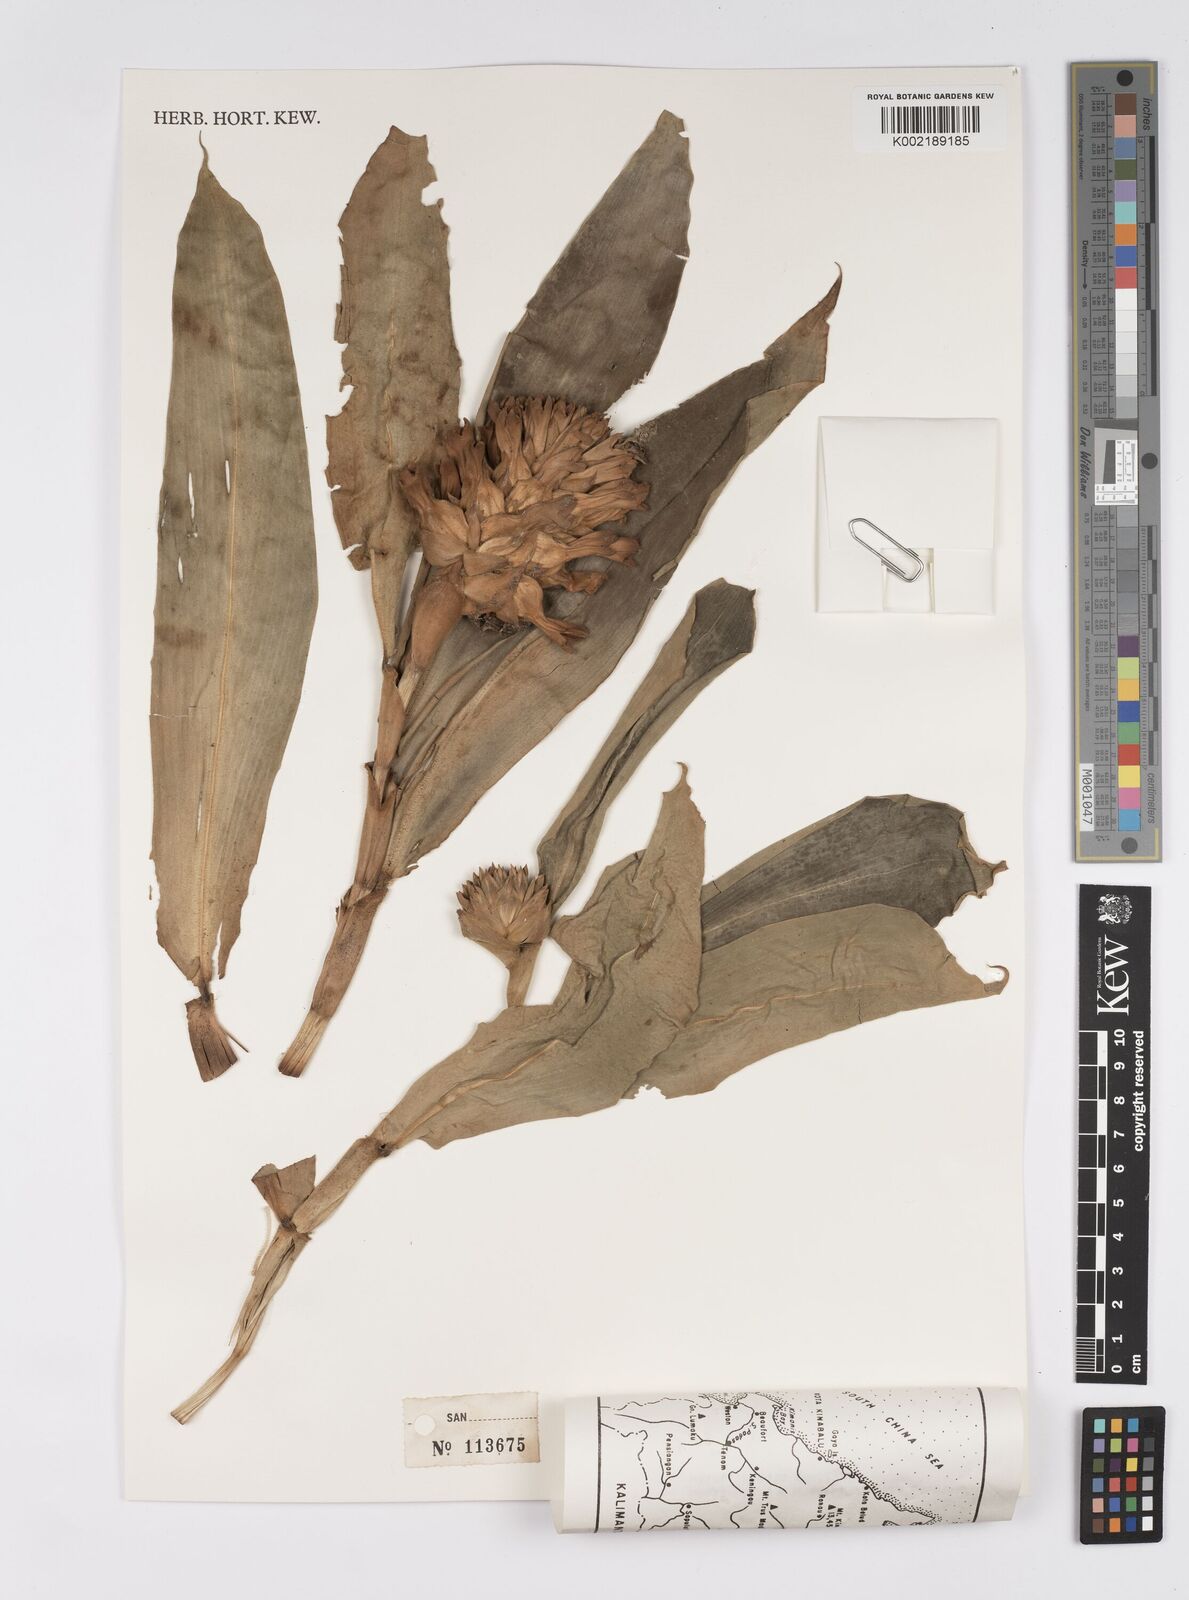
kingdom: Plantae
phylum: Tracheophyta
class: Liliopsida
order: Zingiberales
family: Costaceae
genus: Hellenia
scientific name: Hellenia speciosa
